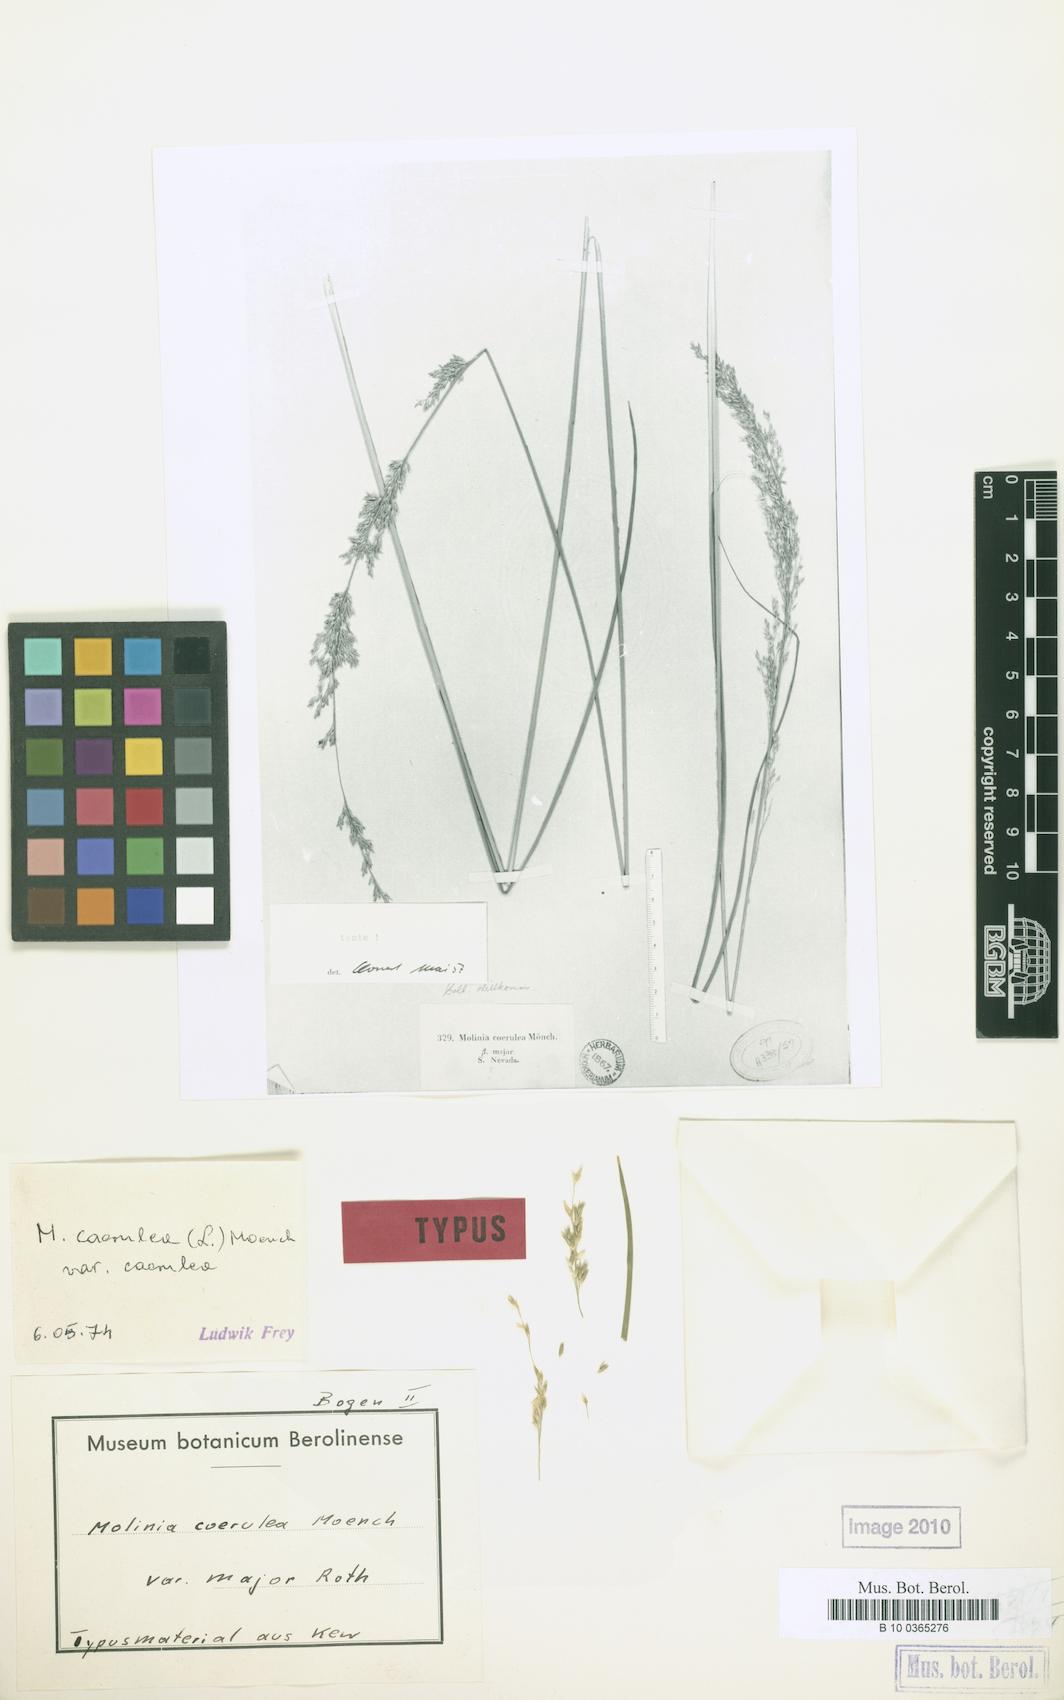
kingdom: Plantae
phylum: Tracheophyta
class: Liliopsida
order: Poales
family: Poaceae
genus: Molinia
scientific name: Molinia caerulea
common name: Purple moor-grass
